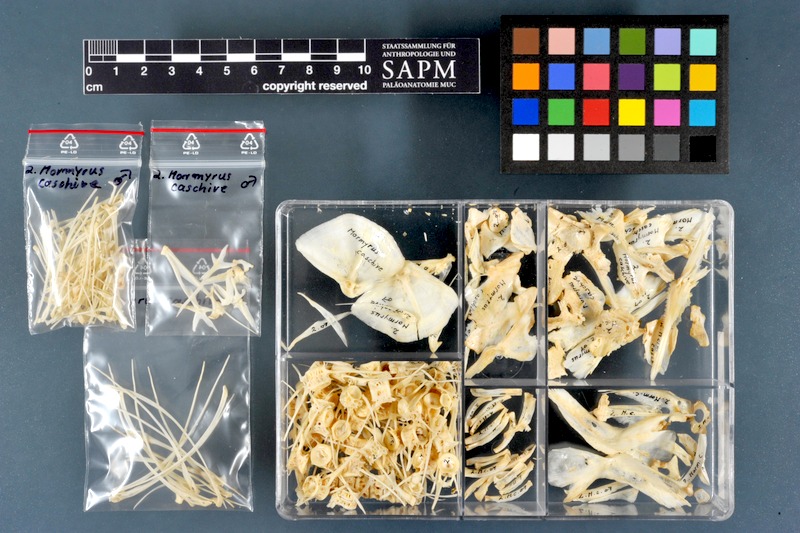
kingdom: Animalia
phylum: Chordata
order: Osteoglossiformes
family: Mormyridae
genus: Mormyrus
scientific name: Mormyrus caschive
